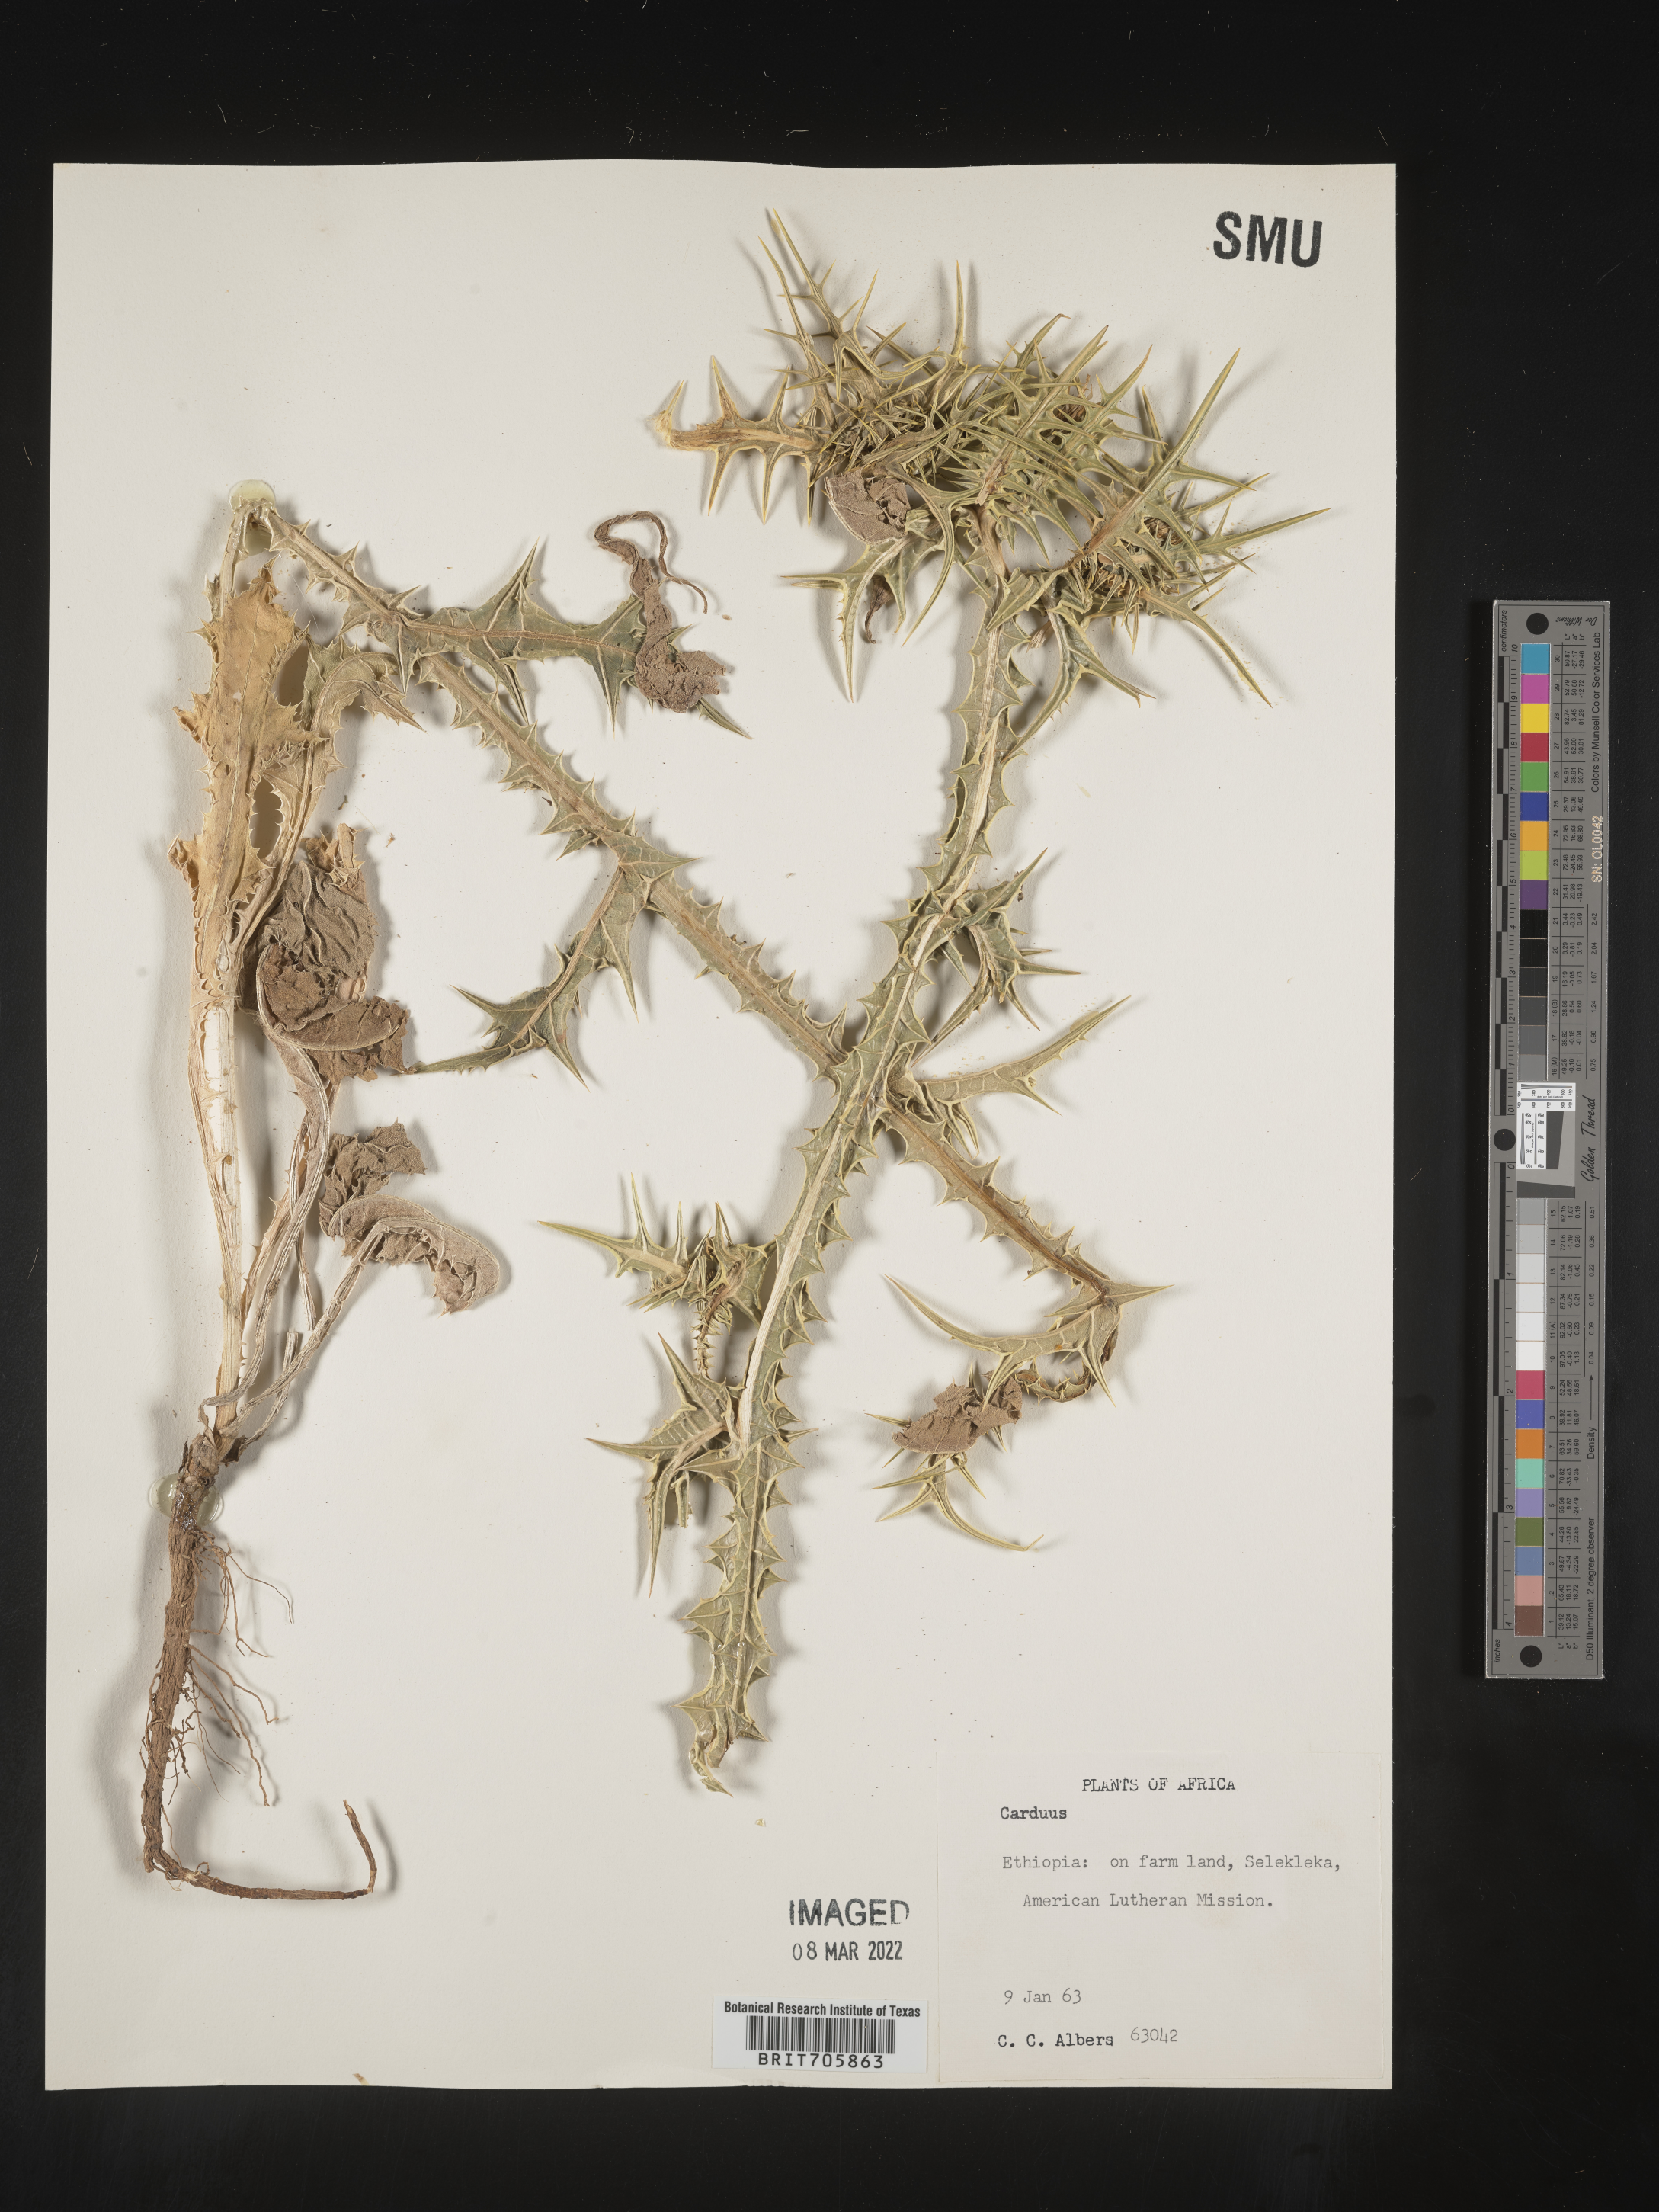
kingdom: Plantae
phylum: Tracheophyta
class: Magnoliopsida
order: Asterales
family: Asteraceae
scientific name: Asteraceae
